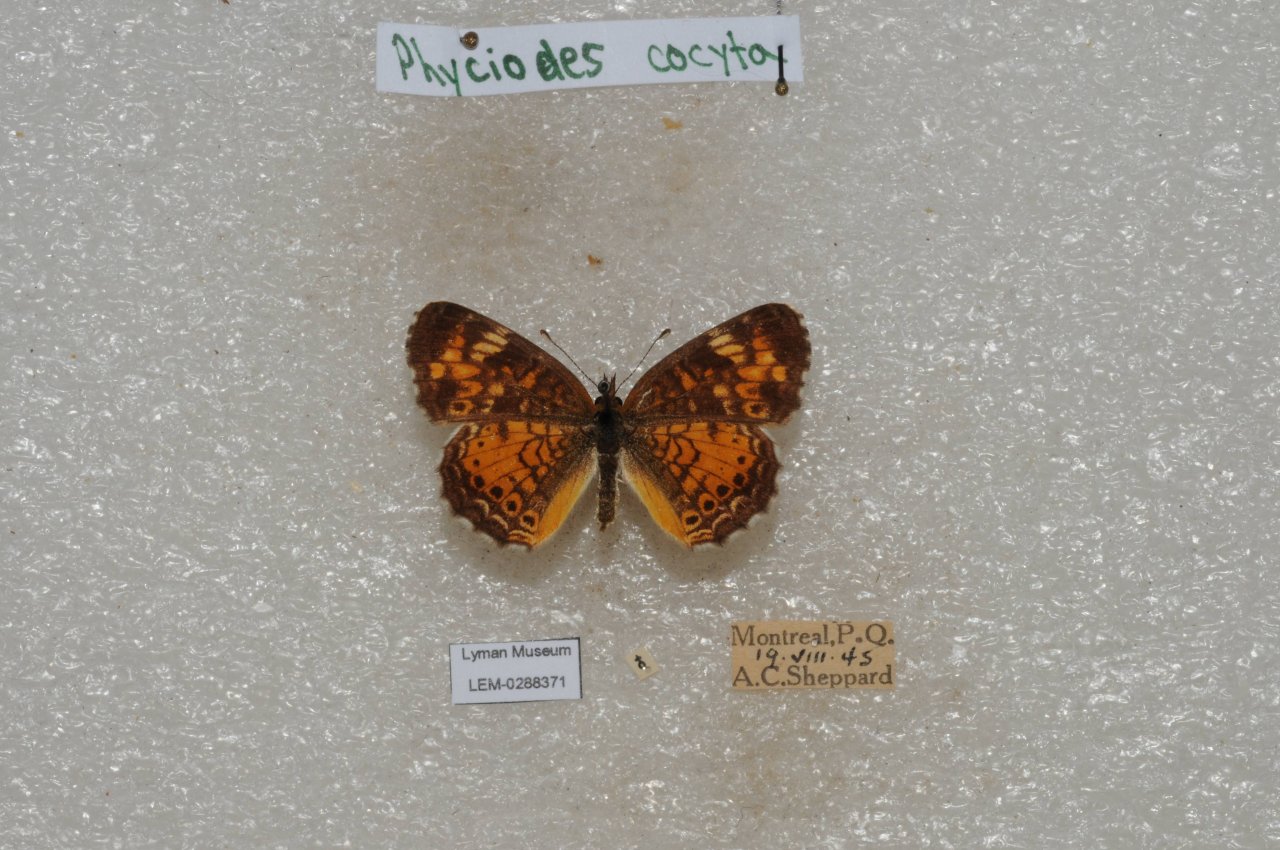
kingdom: Animalia
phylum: Arthropoda
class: Insecta
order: Lepidoptera
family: Nymphalidae
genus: Phyciodes
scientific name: Phyciodes tharos
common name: Northern Crescent
